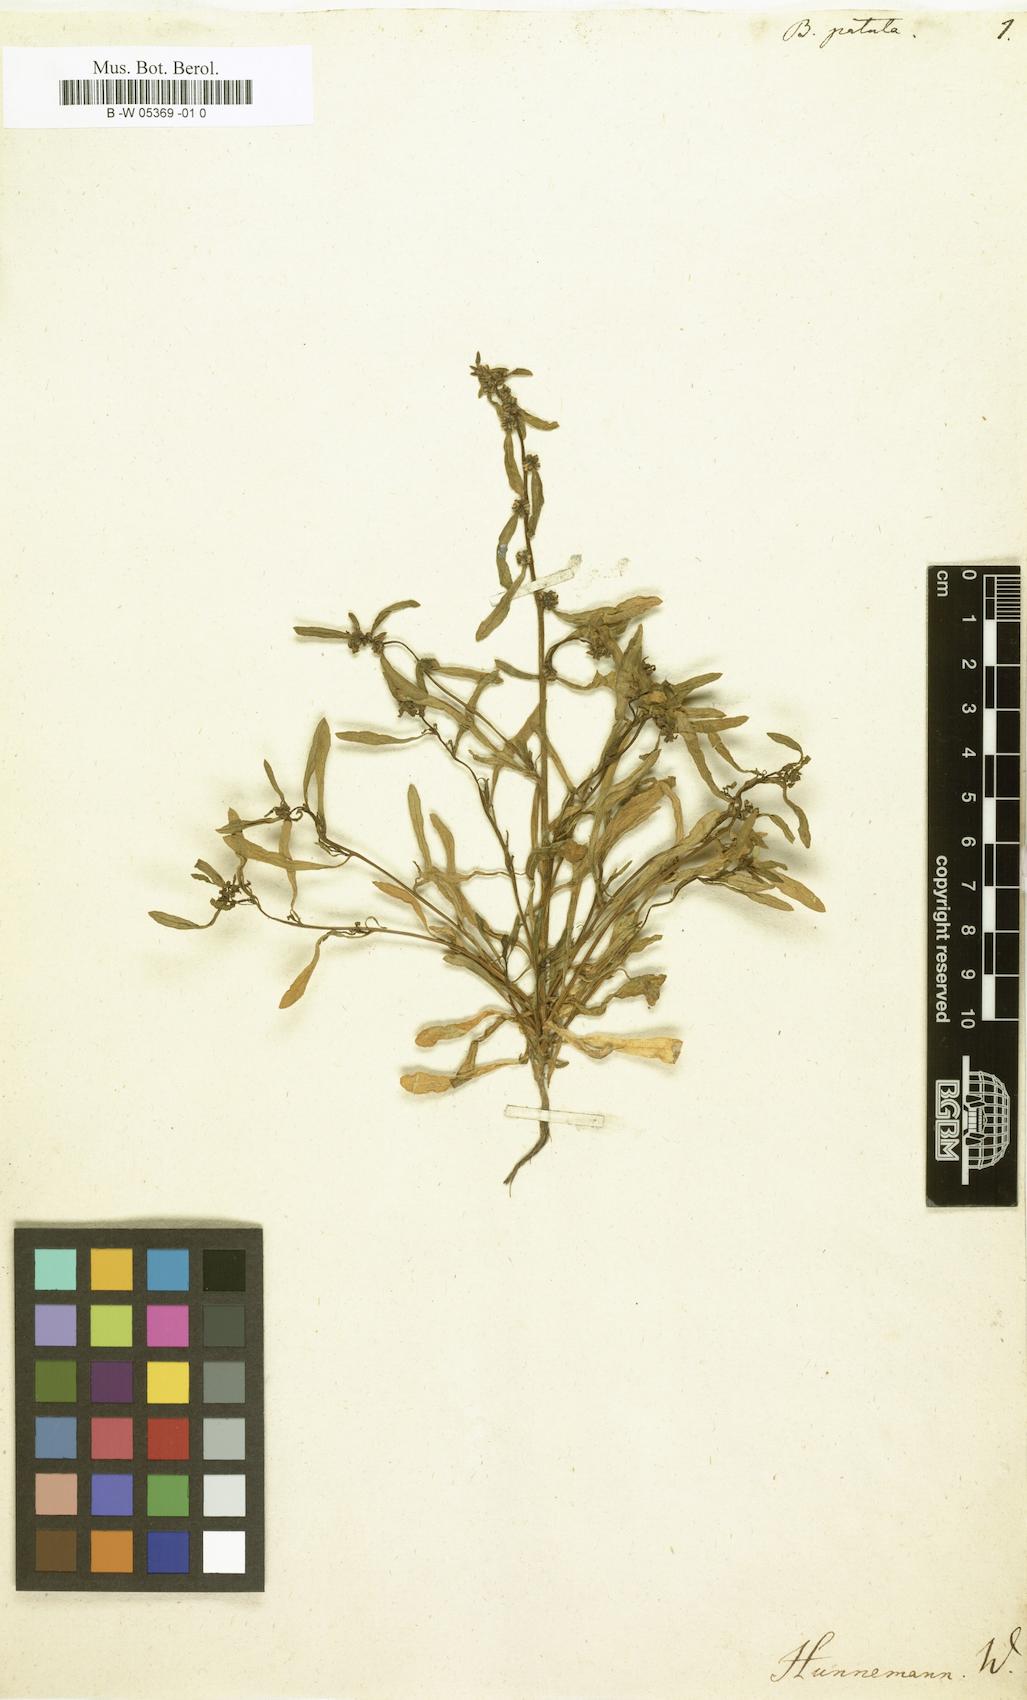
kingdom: Plantae
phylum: Tracheophyta
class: Magnoliopsida
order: Caryophyllales
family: Amaranthaceae
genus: Beta
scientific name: Beta patula
